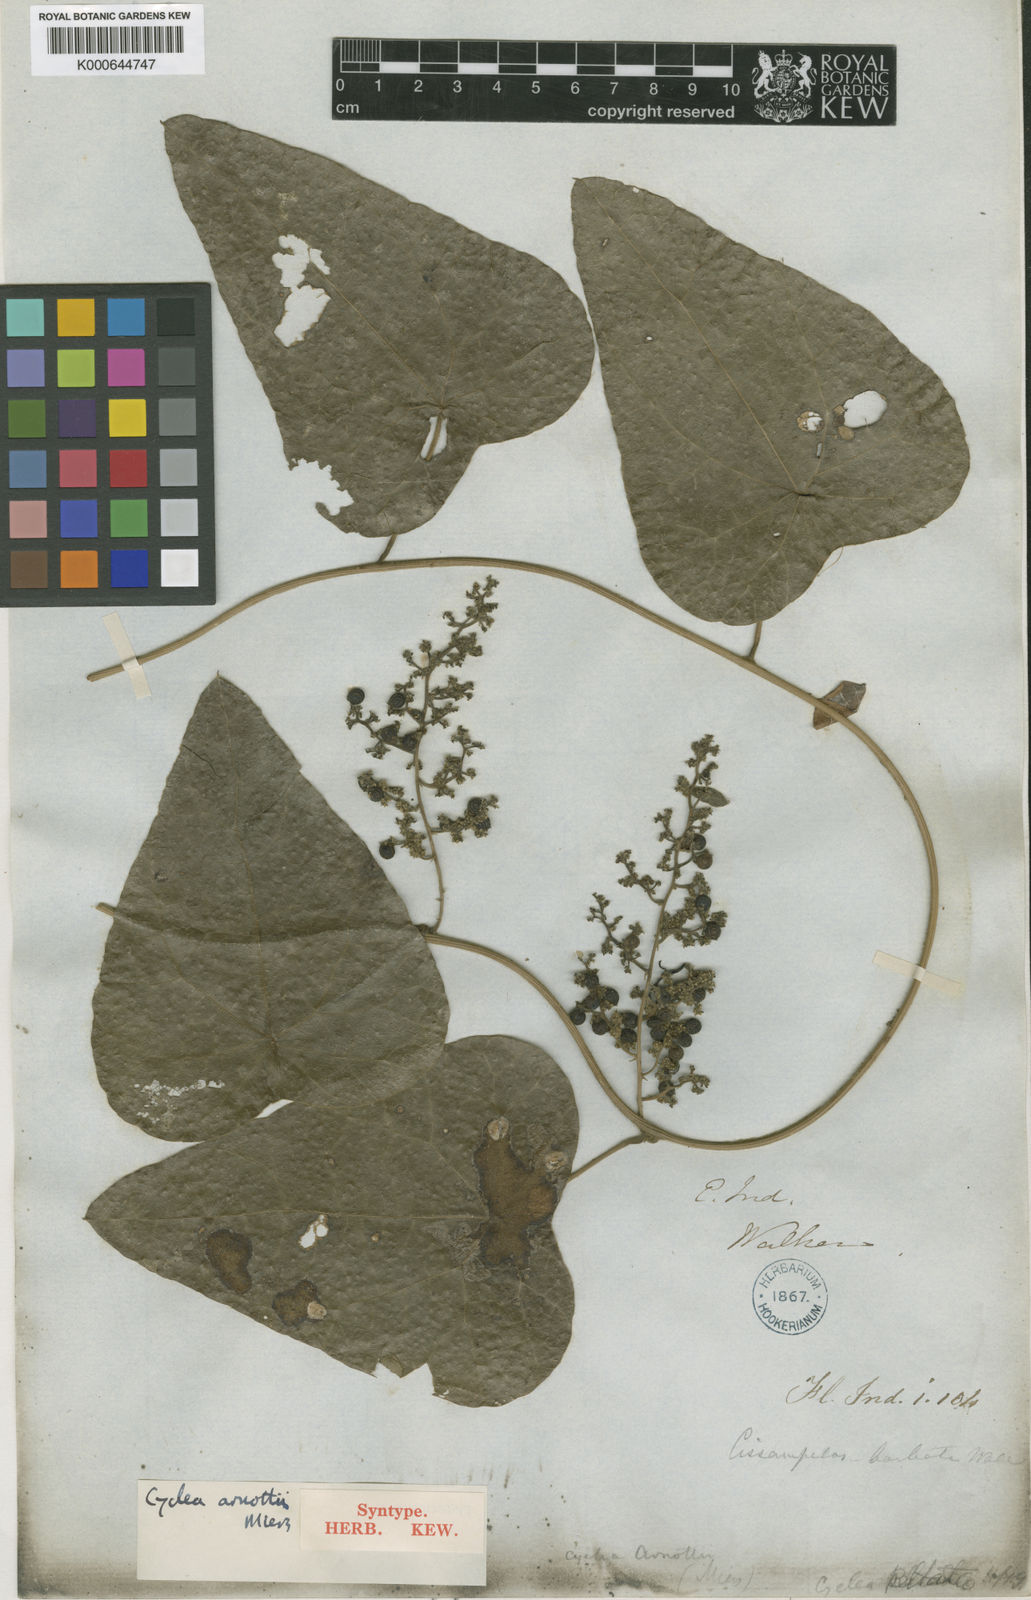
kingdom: Plantae
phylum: Tracheophyta
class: Magnoliopsida
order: Ranunculales
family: Menispermaceae
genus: Cyclea
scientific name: Cyclea peltata
